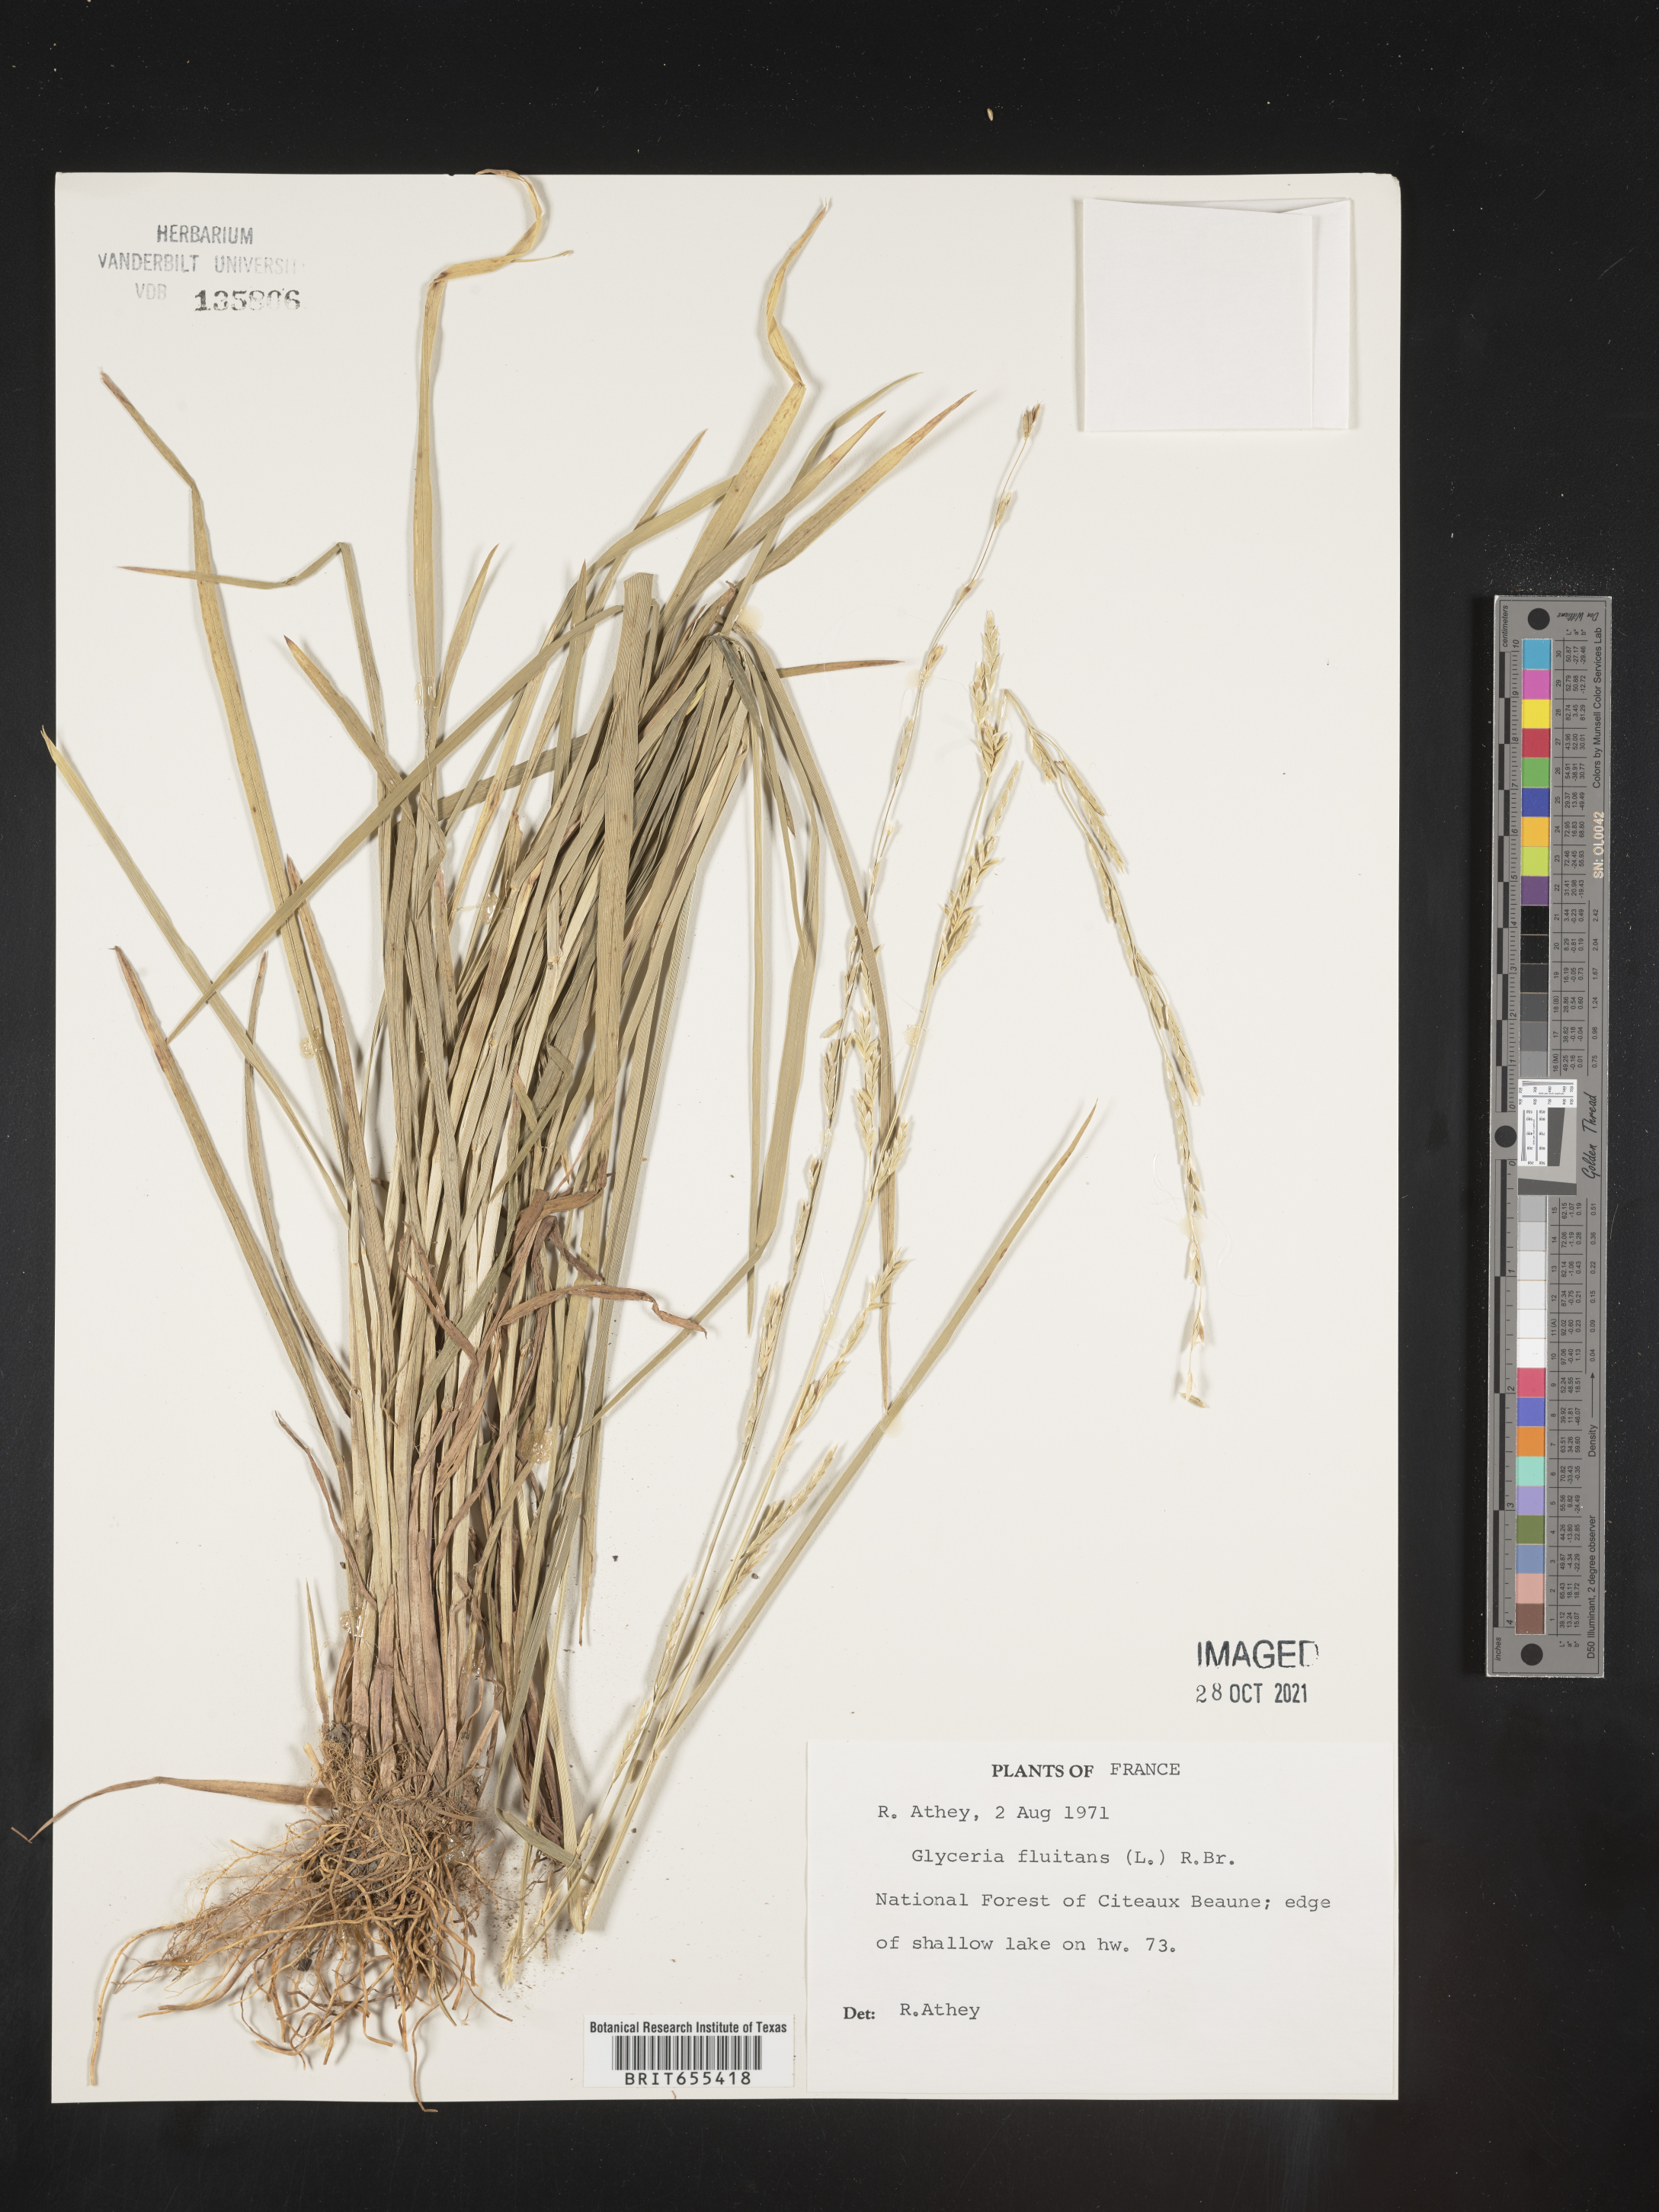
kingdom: Plantae
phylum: Tracheophyta
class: Liliopsida
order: Poales
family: Poaceae
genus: Glyceria
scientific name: Glyceria
